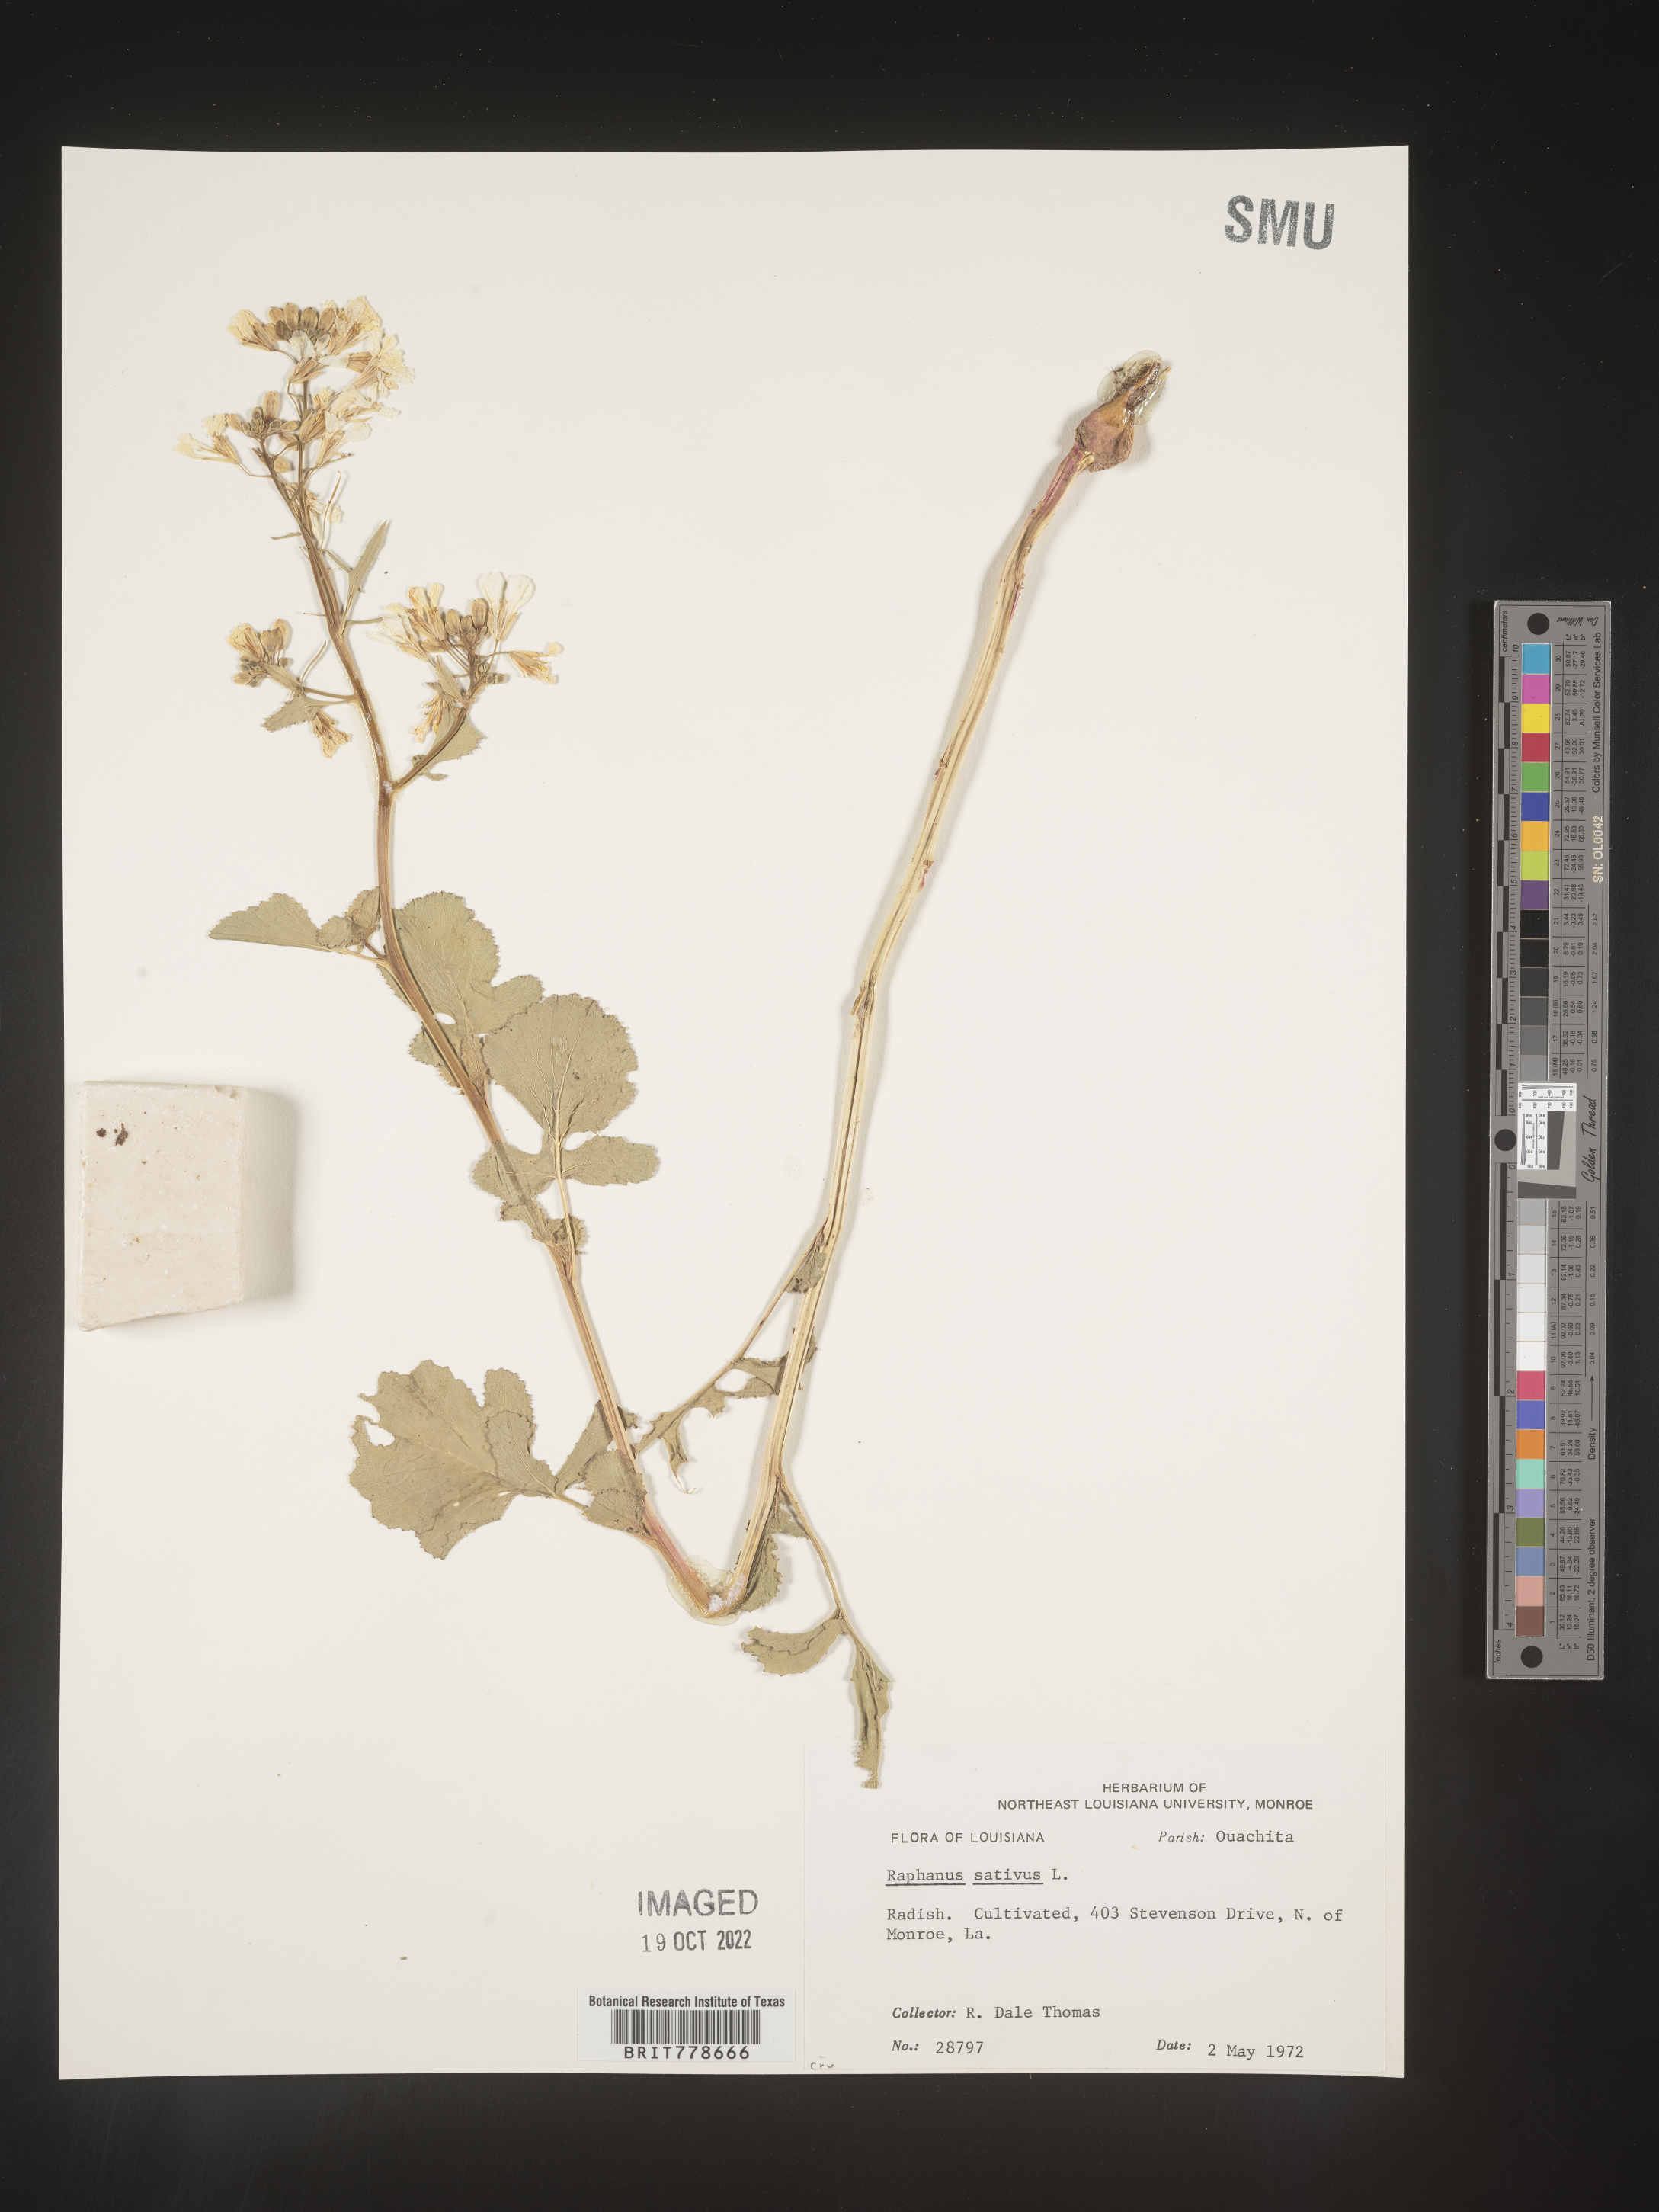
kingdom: Plantae
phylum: Tracheophyta
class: Magnoliopsida
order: Brassicales
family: Brassicaceae
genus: Raphanus
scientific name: Raphanus sativus
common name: Cultivated radish
